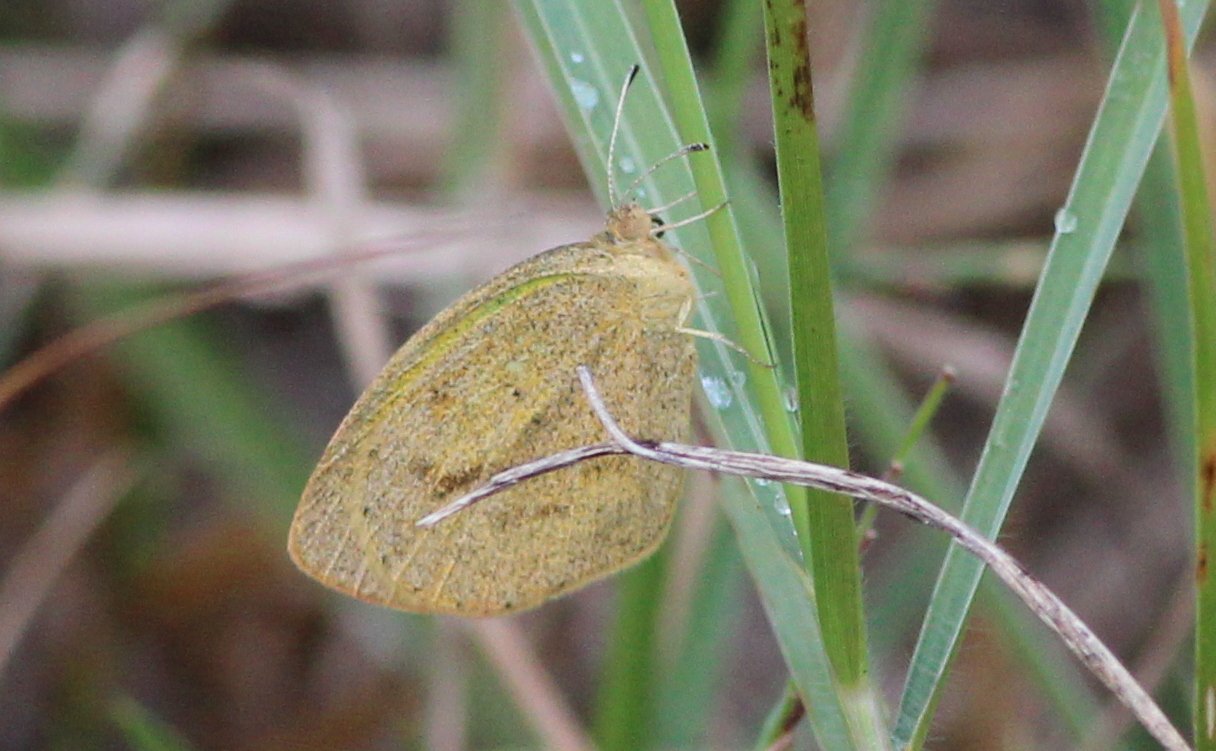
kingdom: Animalia
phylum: Arthropoda
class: Insecta
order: Lepidoptera
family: Pieridae
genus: Eurema
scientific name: Eurema daira
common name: Barred Yellow
